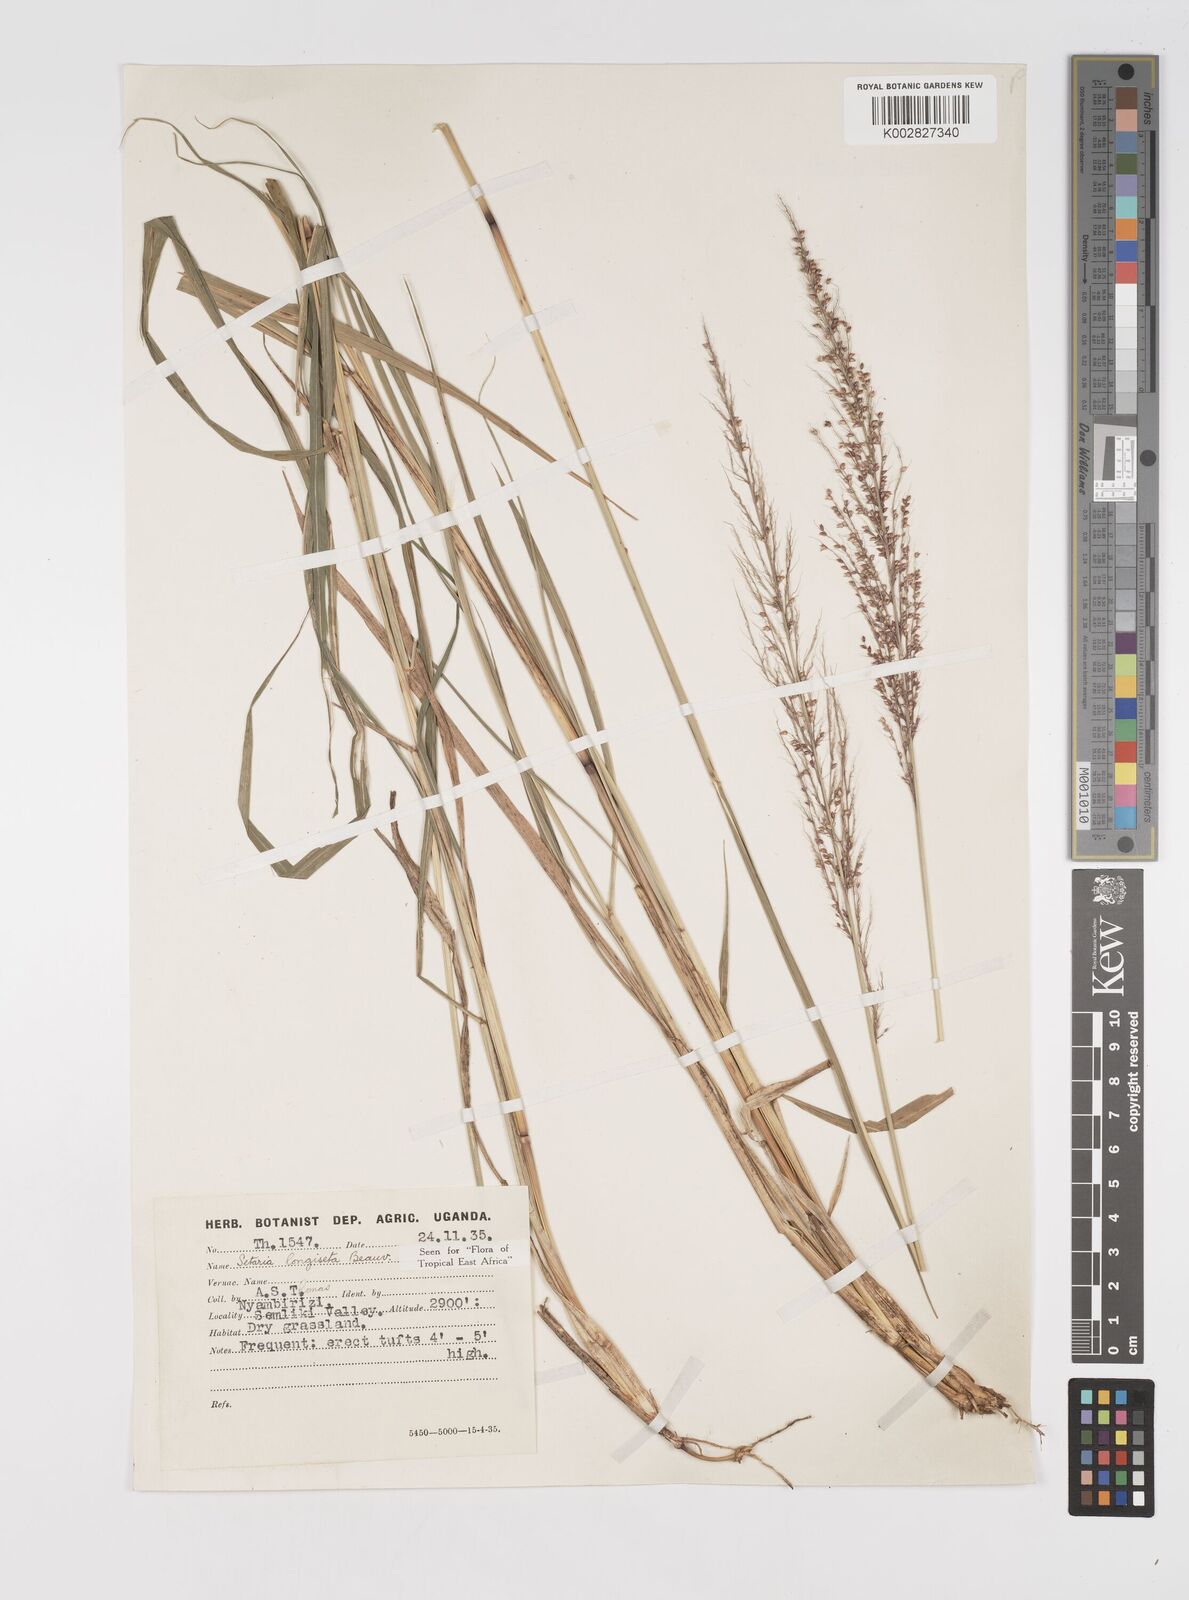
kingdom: Plantae
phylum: Tracheophyta
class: Liliopsida
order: Poales
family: Poaceae
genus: Setaria
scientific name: Setaria longiseta
